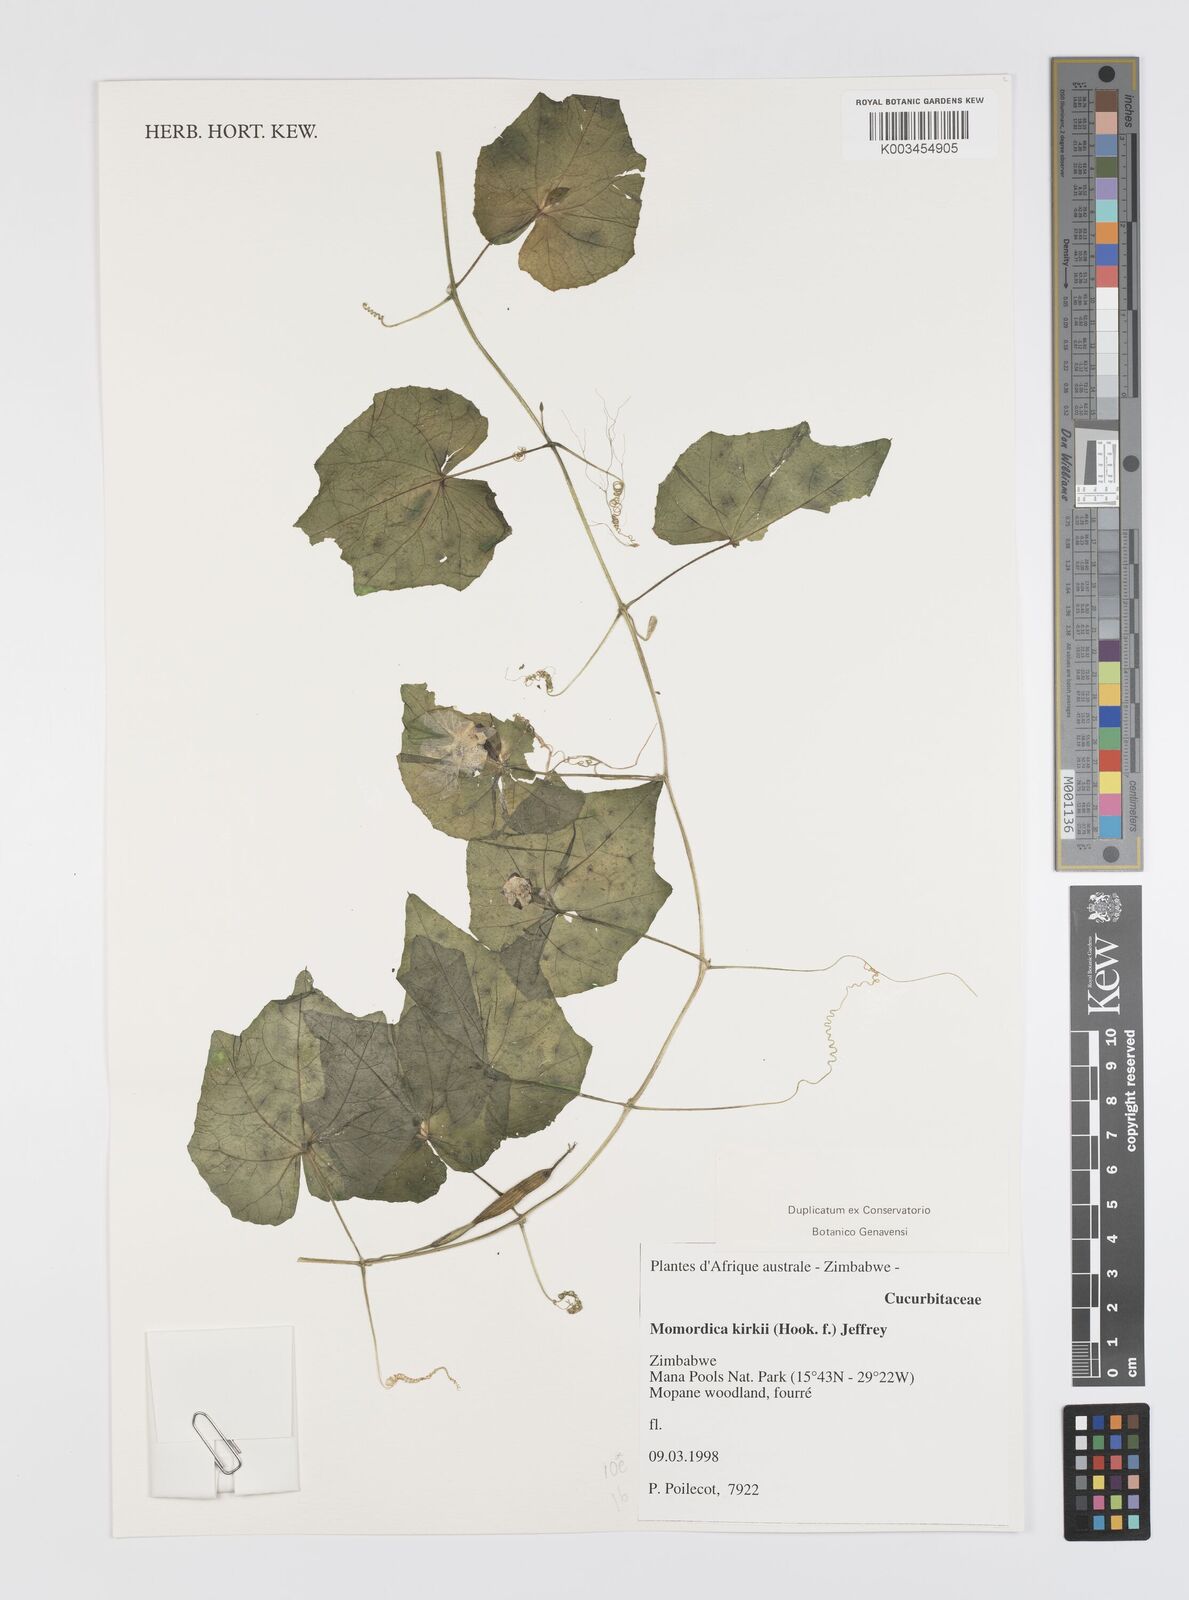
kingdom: Plantae
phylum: Tracheophyta
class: Magnoliopsida
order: Cucurbitales
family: Cucurbitaceae
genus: Momordica
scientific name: Momordica kirkii
